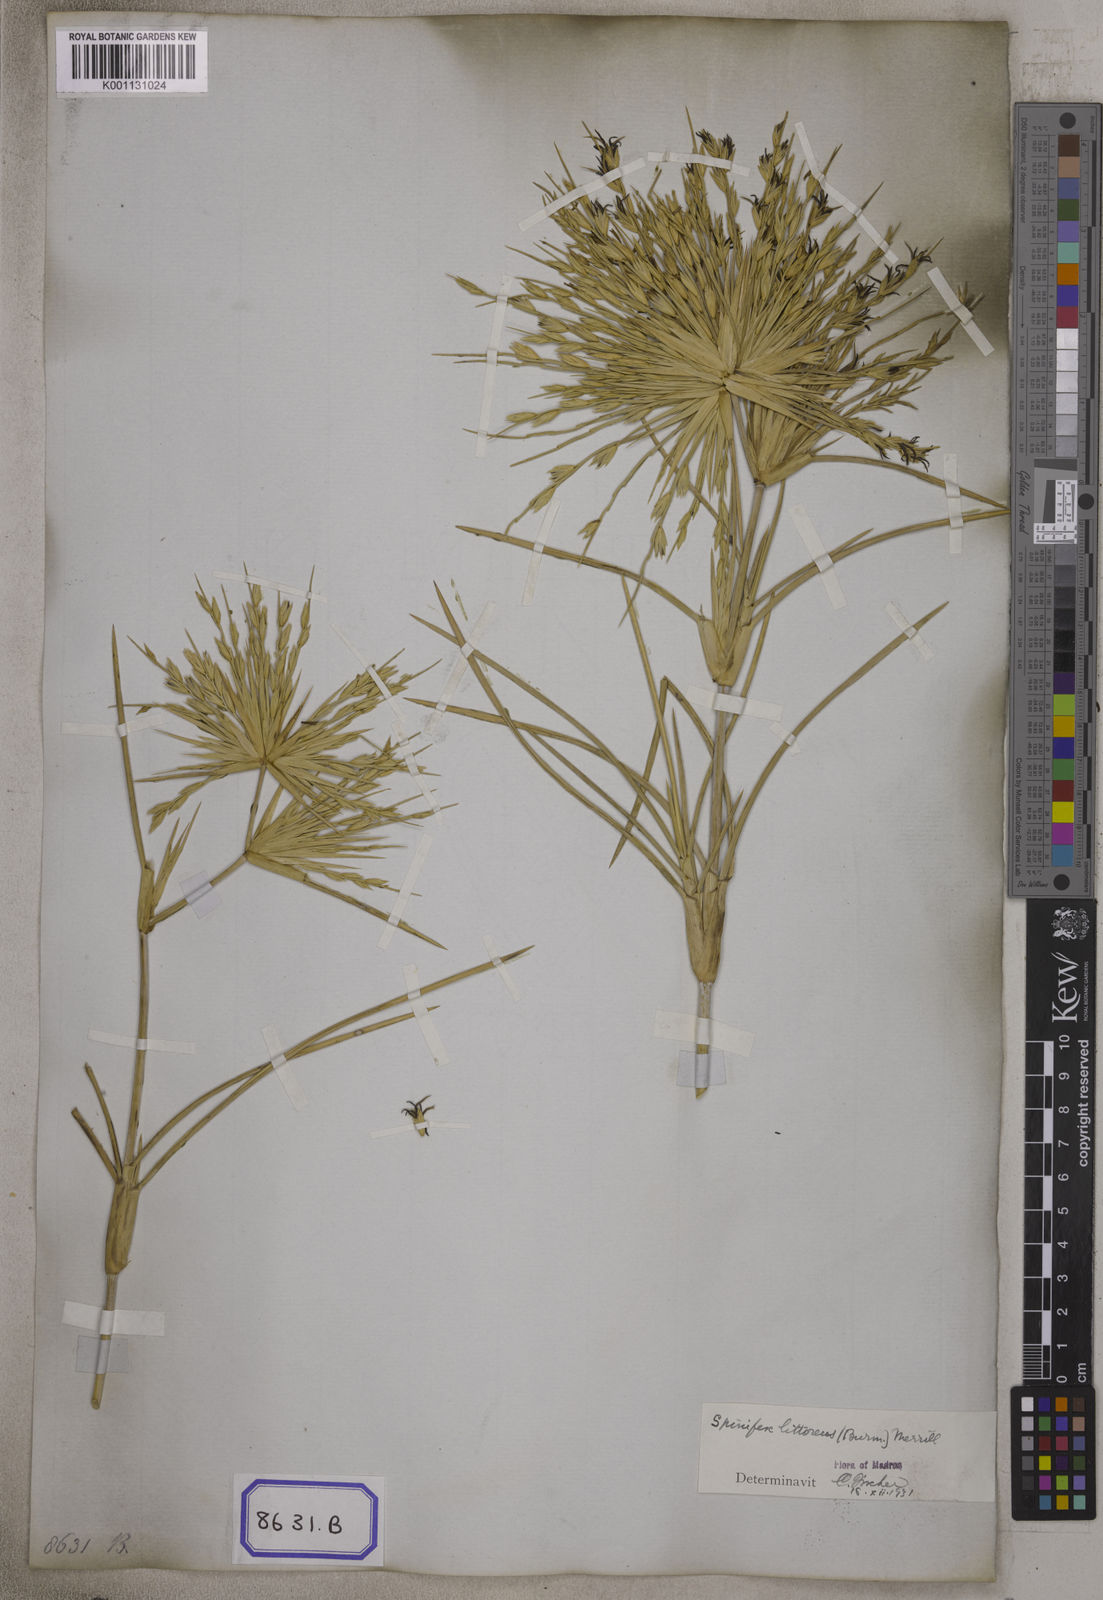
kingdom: Plantae
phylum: Tracheophyta
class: Liliopsida
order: Poales
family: Poaceae
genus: Spinifex
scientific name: Spinifex littoreus
